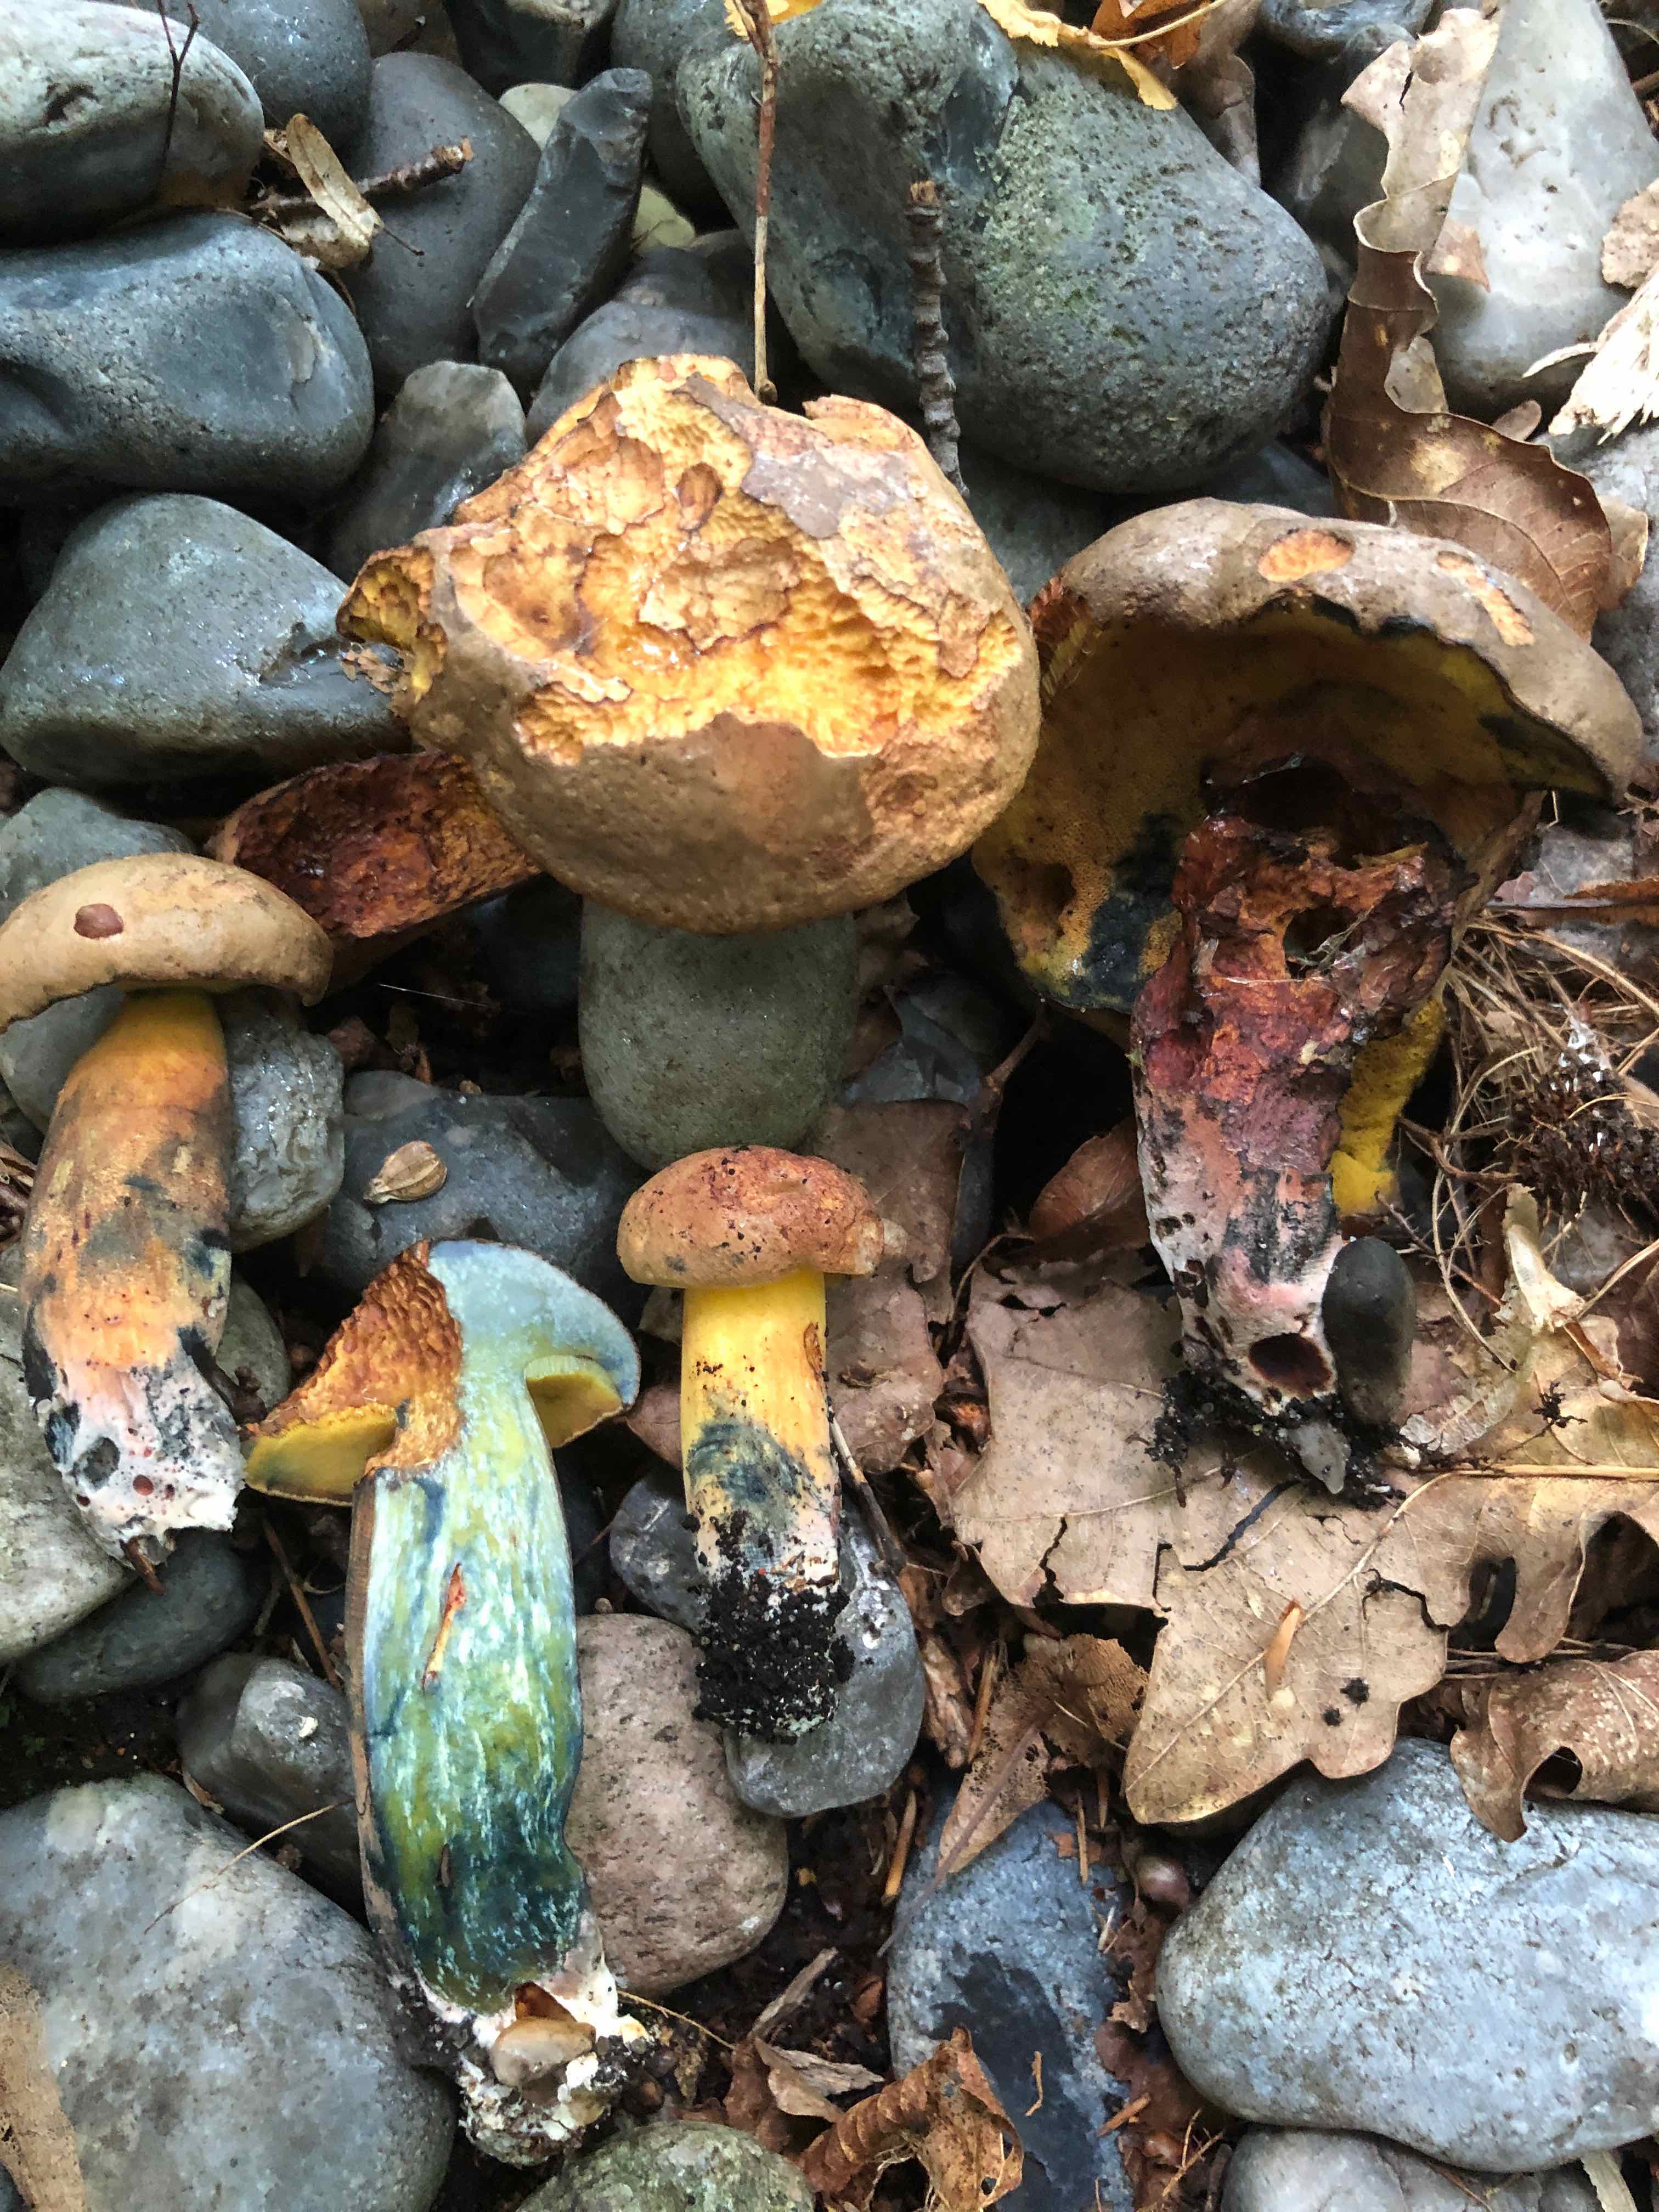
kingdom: Fungi
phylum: Basidiomycota
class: Agaricomycetes
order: Boletales
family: Boletaceae
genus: Cyanoboletus
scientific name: Cyanoboletus pulverulentus
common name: sortblånende rørhat
